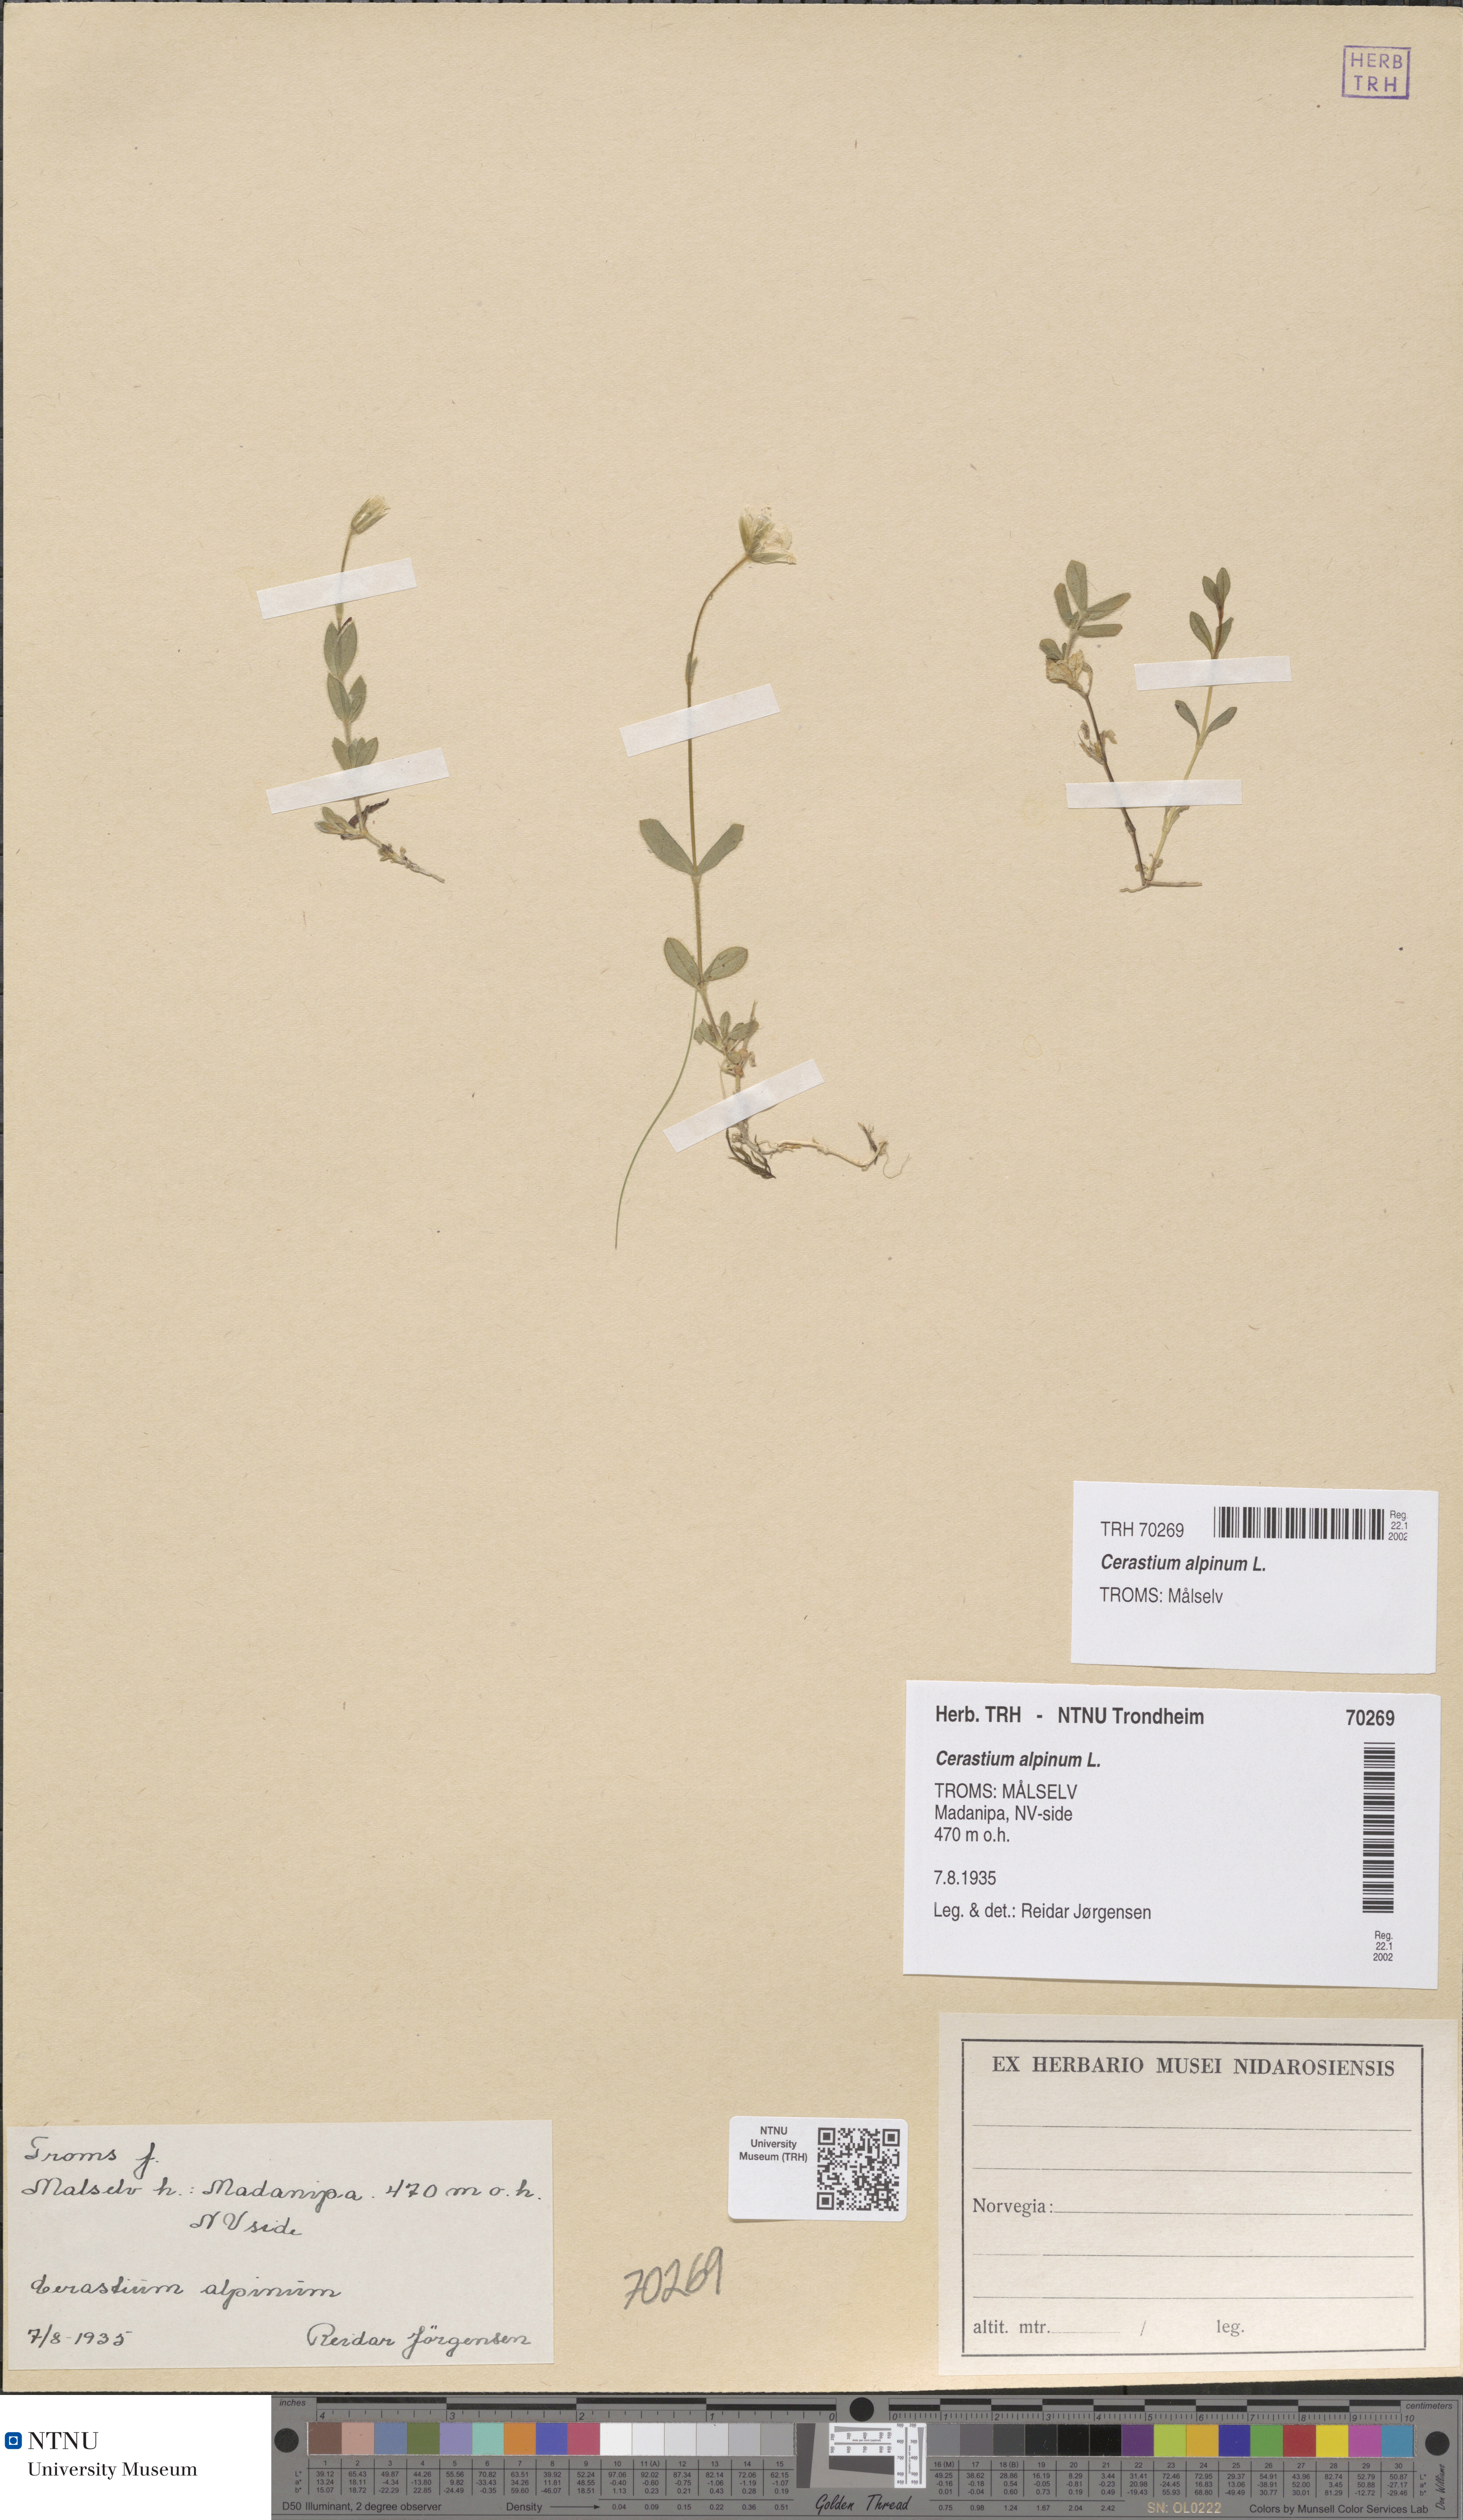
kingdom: Plantae
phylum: Tracheophyta
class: Magnoliopsida
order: Caryophyllales
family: Caryophyllaceae
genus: Cerastium
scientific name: Cerastium alpinum
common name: Alpine mouse-ear
